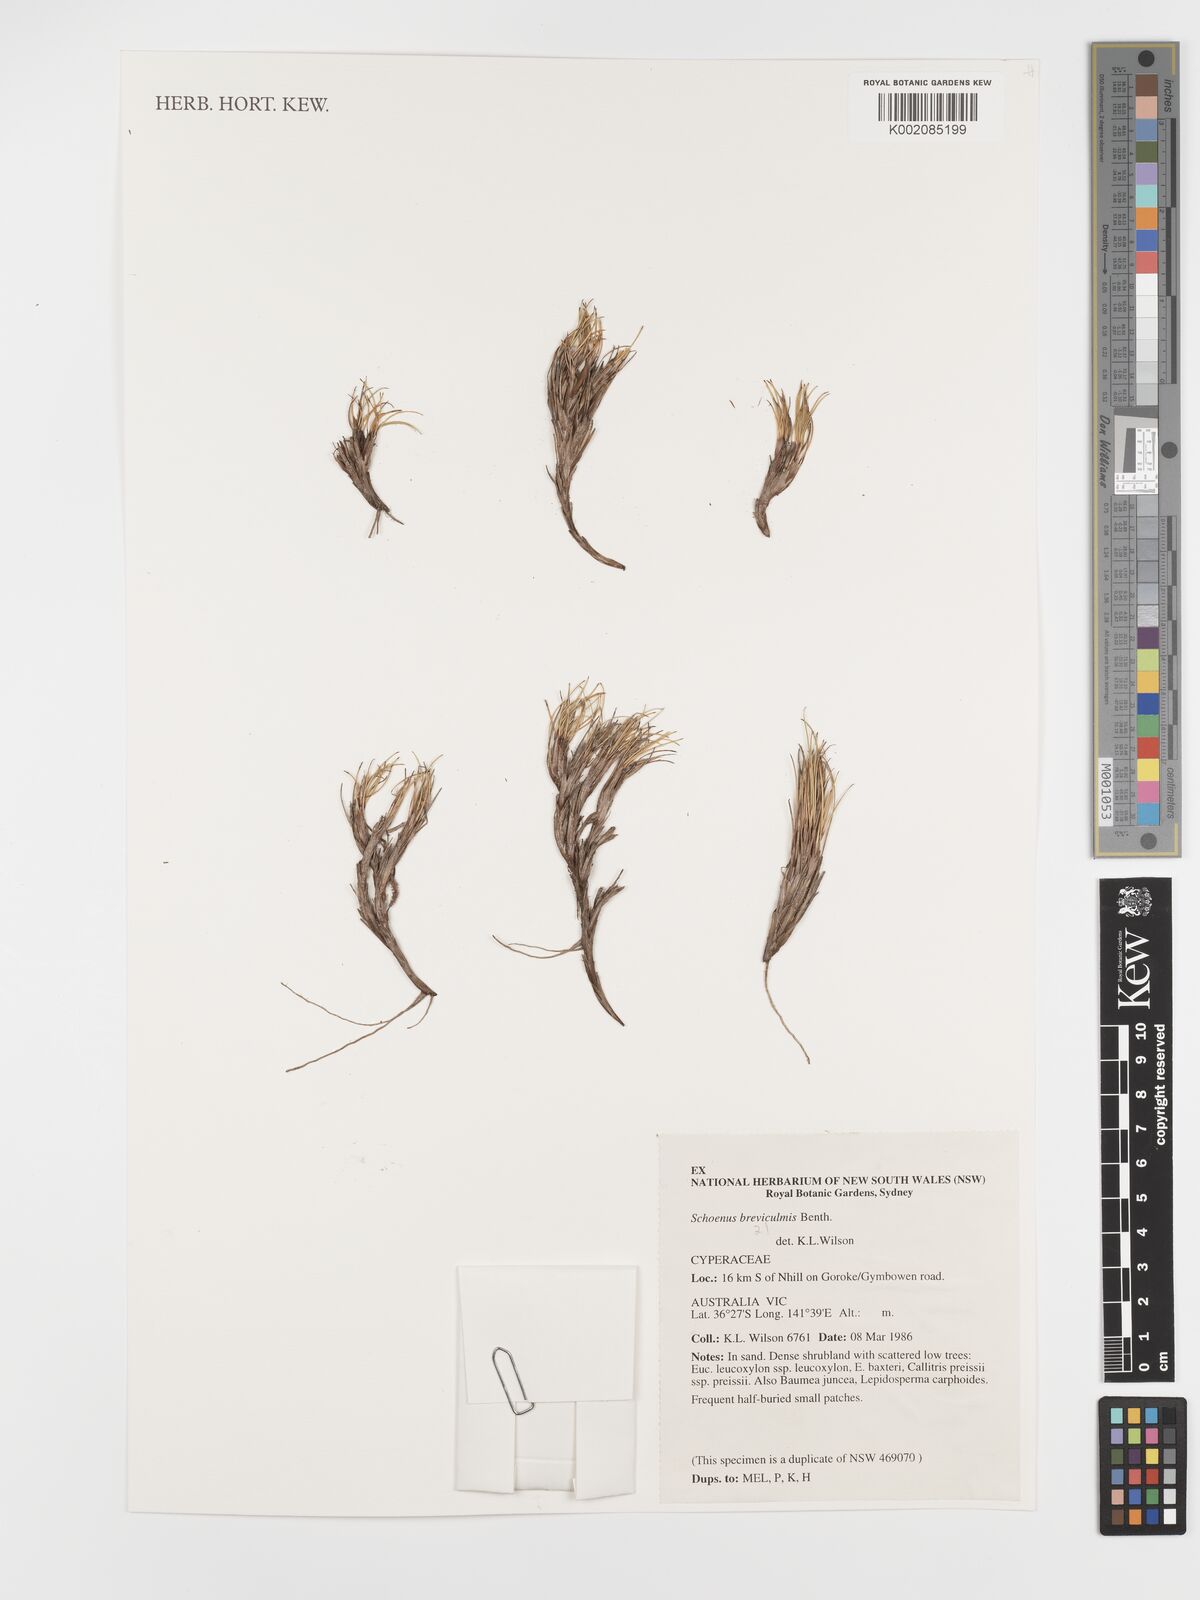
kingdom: Plantae
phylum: Tracheophyta
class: Liliopsida
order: Poales
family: Cyperaceae
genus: Schoenus
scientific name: Schoenus breviculmis
